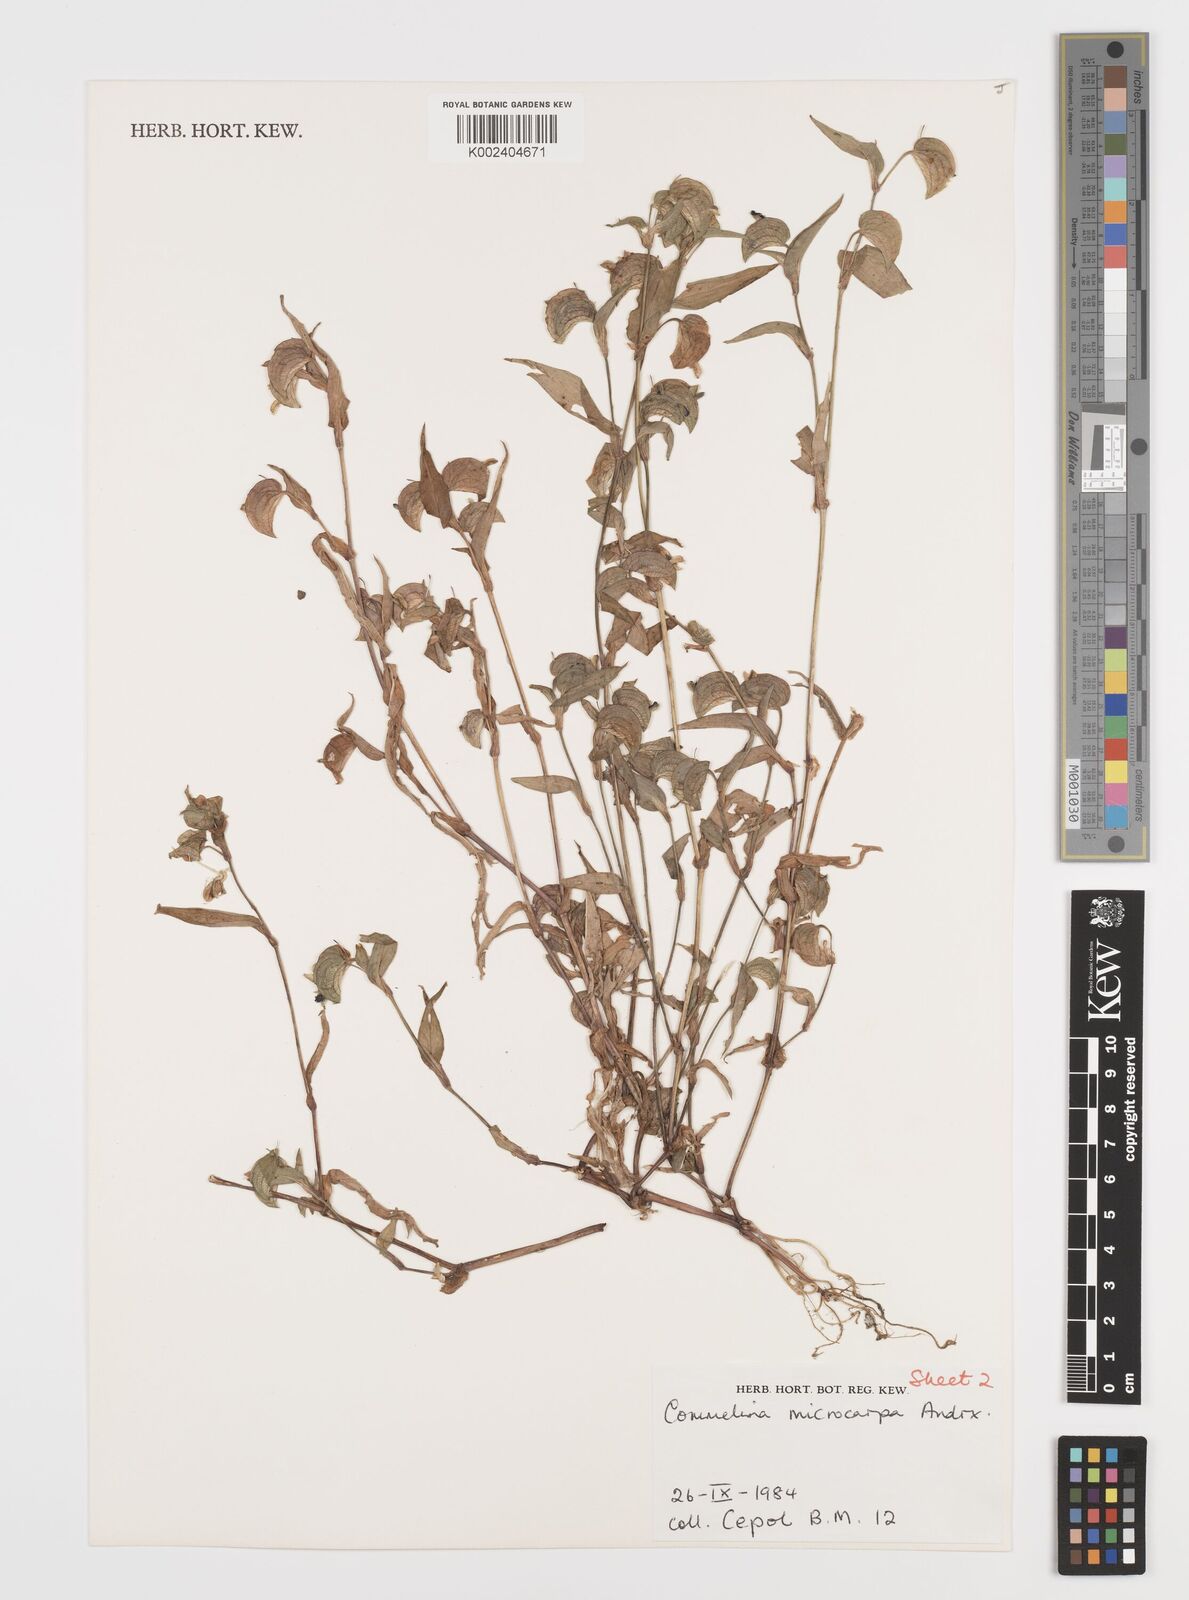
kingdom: Plantae
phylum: Tracheophyta
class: Liliopsida
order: Commelinales
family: Commelinaceae
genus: Commelina
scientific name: Commelina microspatha
